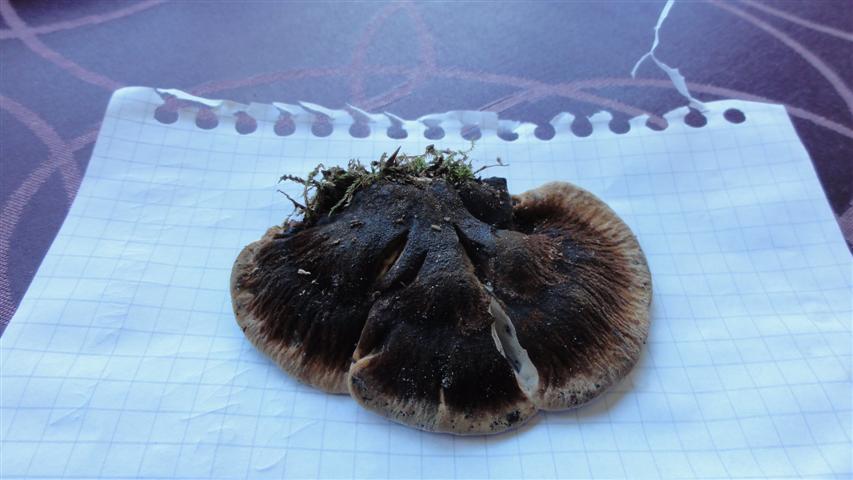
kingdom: Fungi
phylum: Basidiomycota
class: Agaricomycetes
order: Polyporales
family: Ischnodermataceae
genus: Ischnoderma
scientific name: Ischnoderma resinosum
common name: løv-tjæreporesvamp
